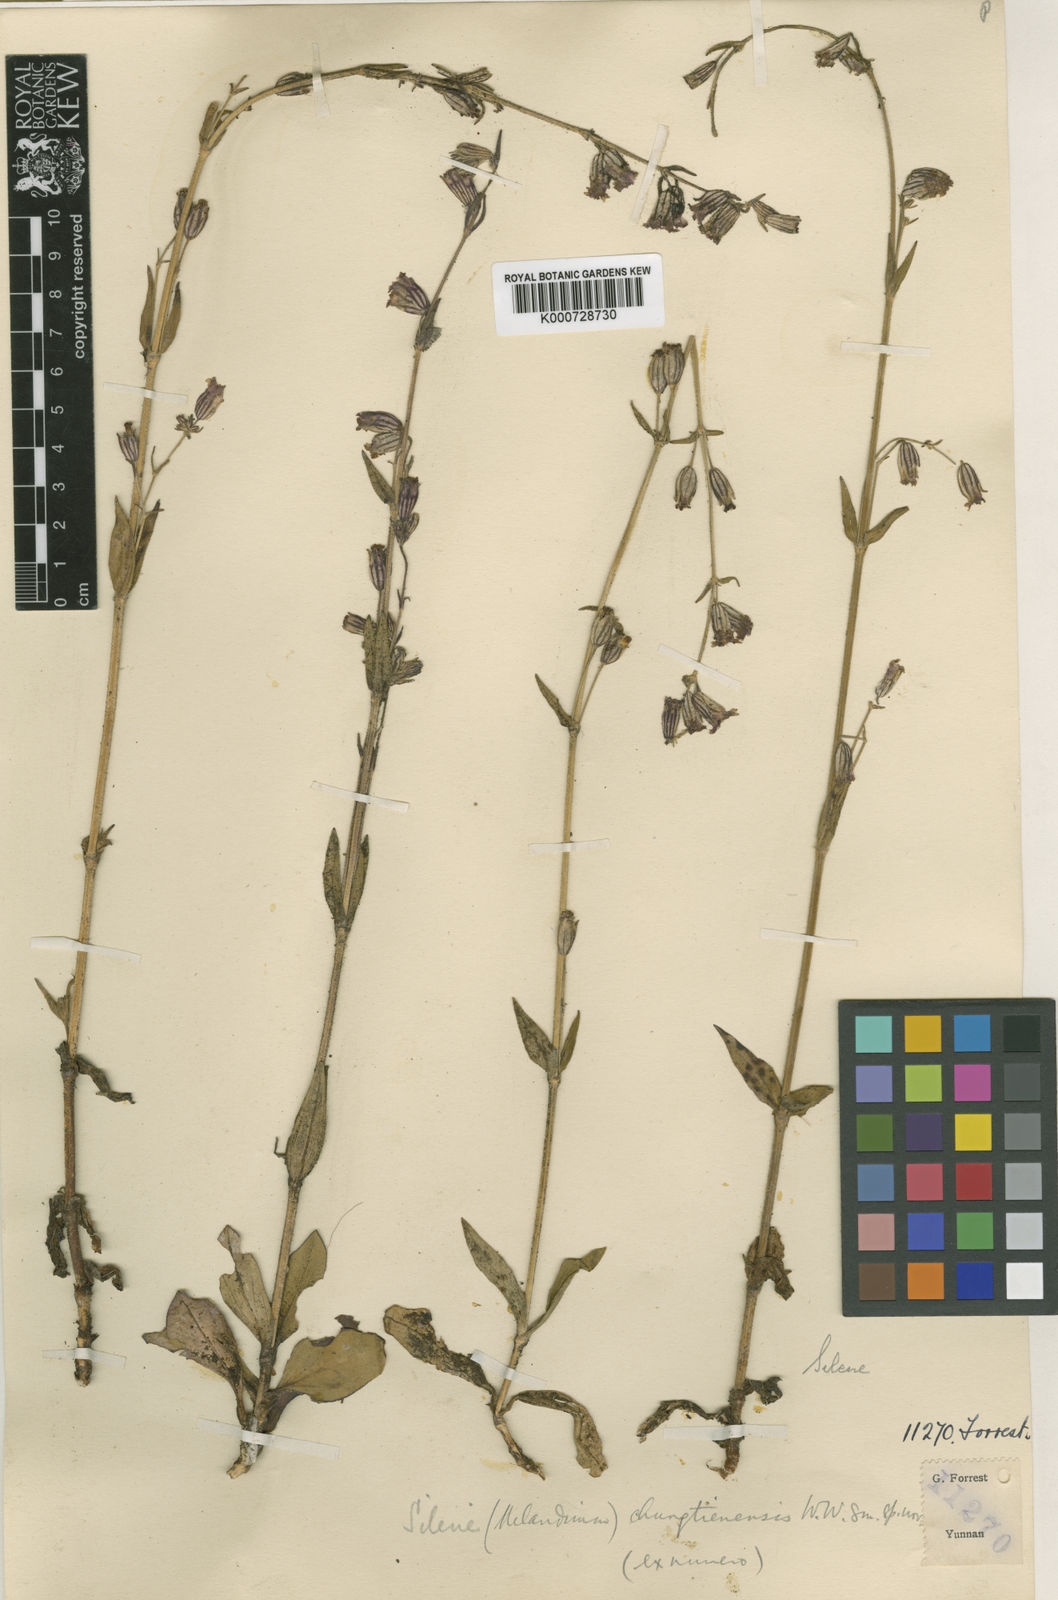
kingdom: Plantae
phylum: Tracheophyta
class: Magnoliopsida
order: Caryophyllales
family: Caryophyllaceae
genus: Silene
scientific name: Silene chungtienensis
